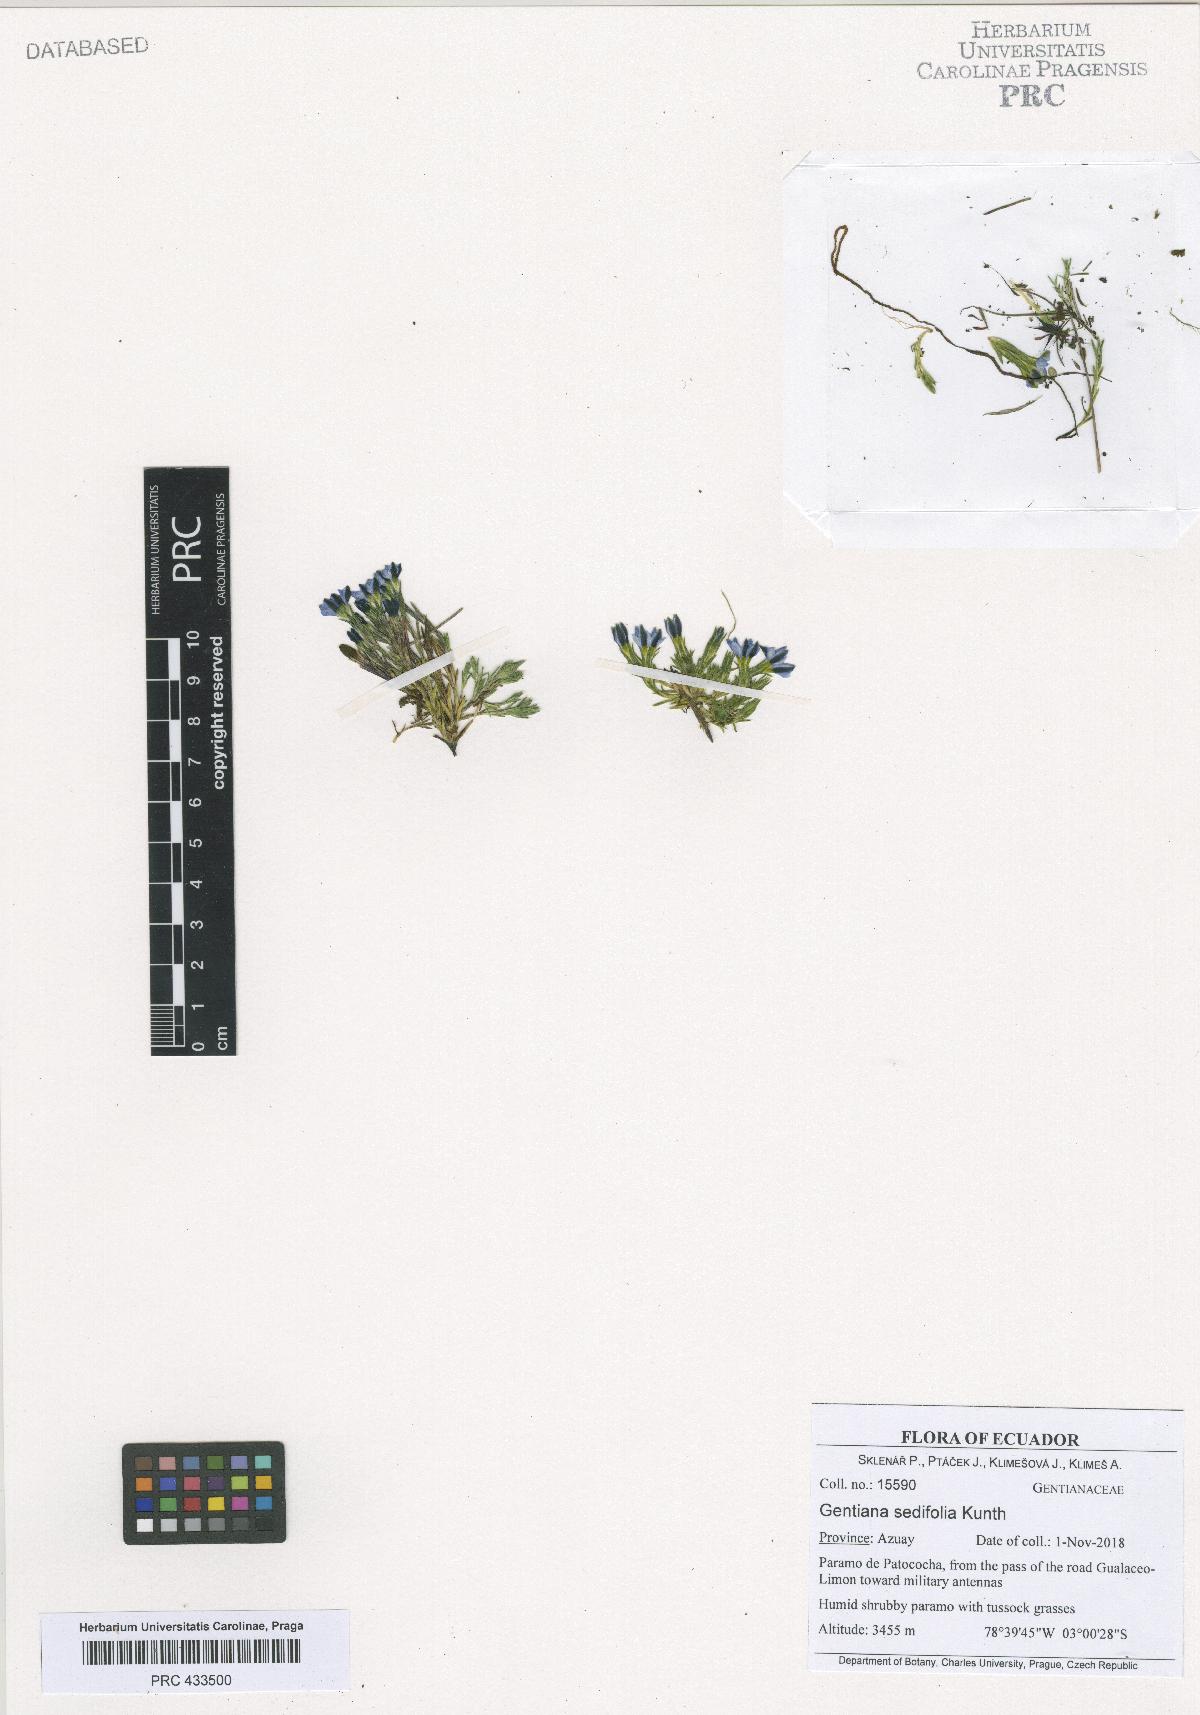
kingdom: Plantae
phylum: Tracheophyta
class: Magnoliopsida
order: Gentianales
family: Gentianaceae
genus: Gentiana
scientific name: Gentiana sedifolia
